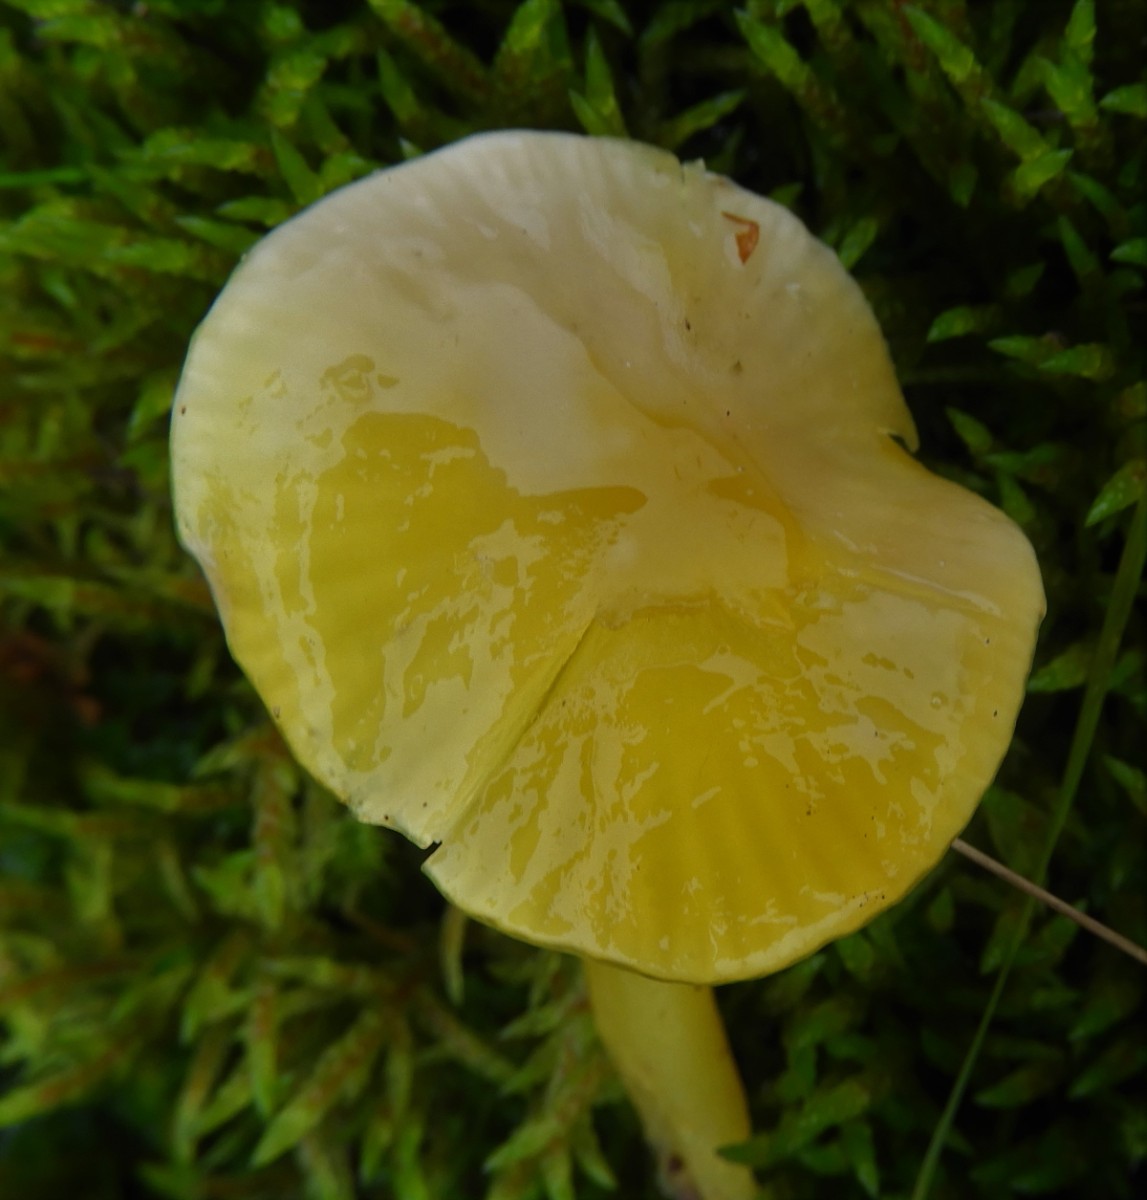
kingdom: Fungi
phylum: Basidiomycota
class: Agaricomycetes
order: Agaricales
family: Hygrophoraceae
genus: Hygrocybe
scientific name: Hygrocybe chlorophana
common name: gul vokshat
